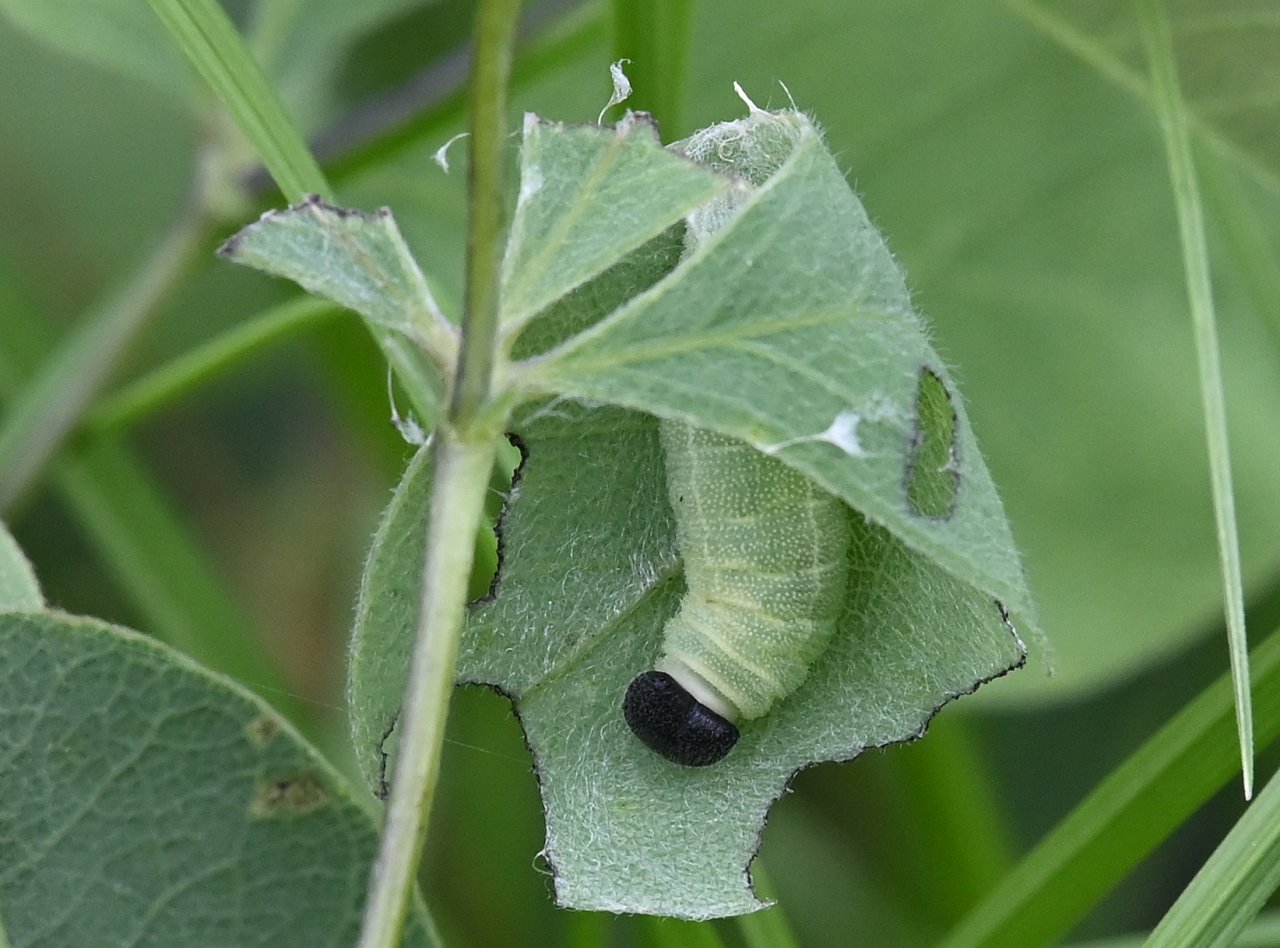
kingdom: Animalia
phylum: Arthropoda
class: Insecta
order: Lepidoptera
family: Hesperiidae
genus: Gesta
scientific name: Gesta
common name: Wild Indigo Duskywing
